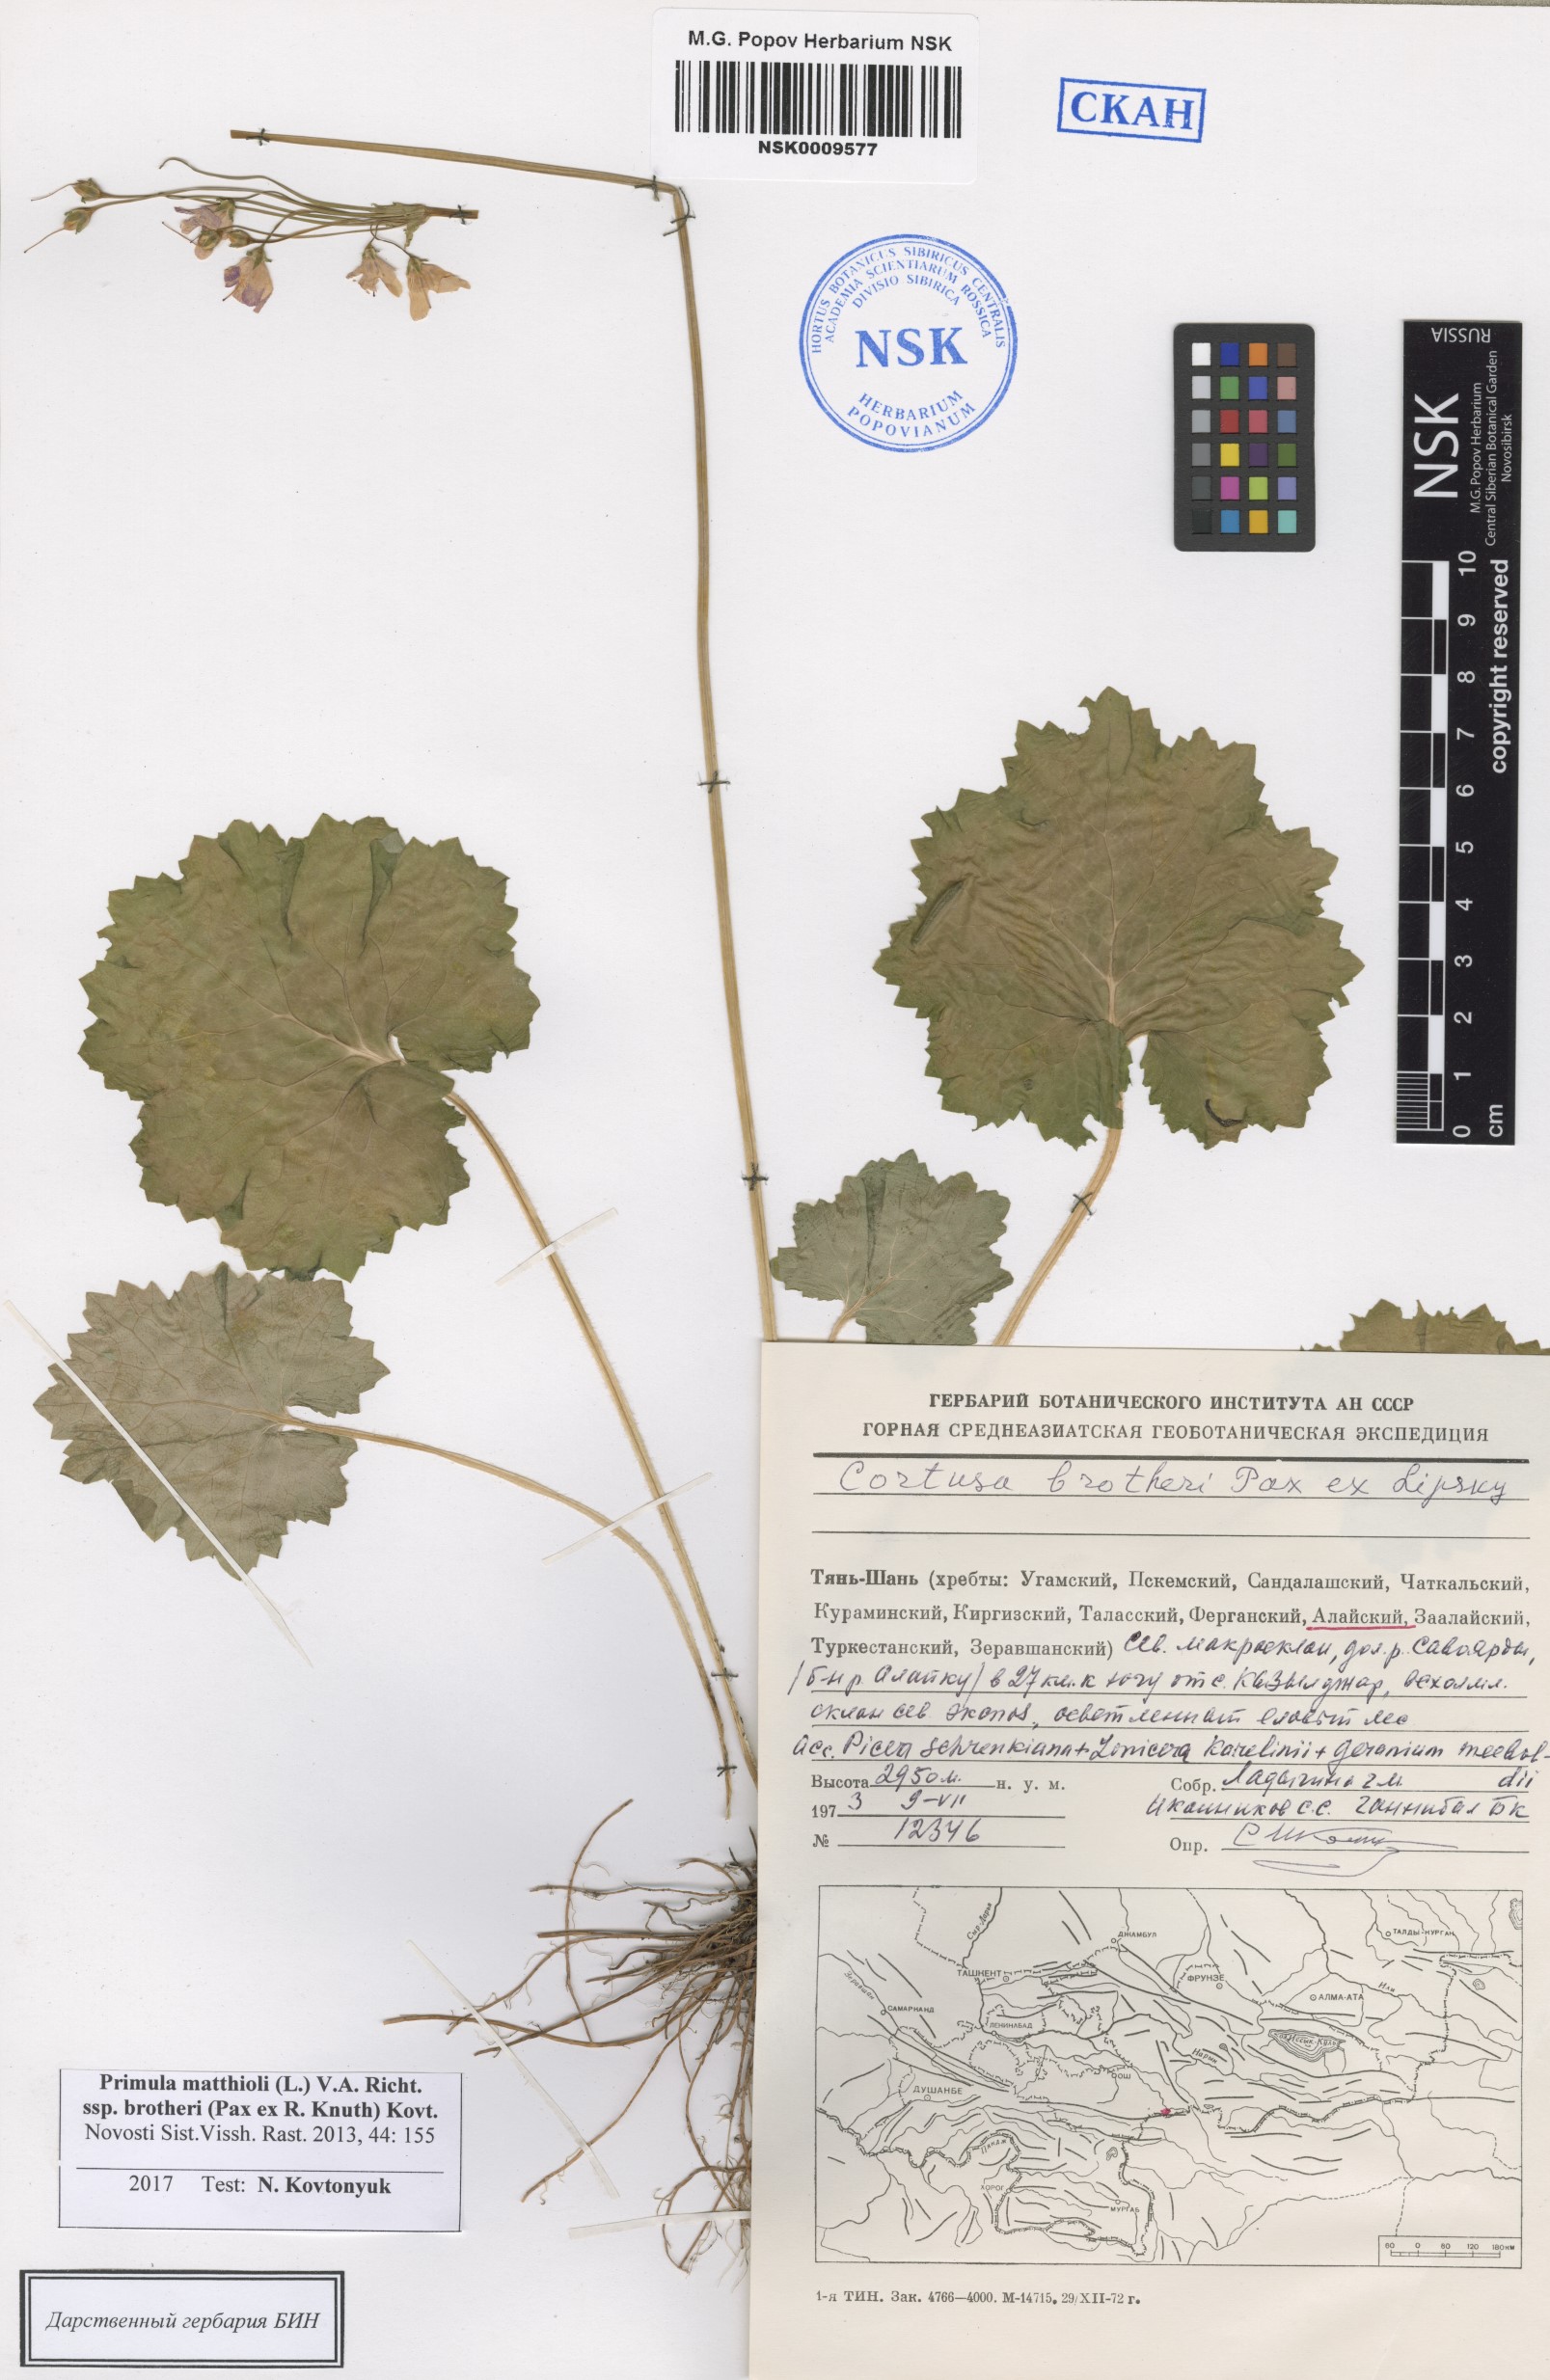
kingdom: Plantae
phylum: Tracheophyta
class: Magnoliopsida
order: Ericales
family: Primulaceae
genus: Primula
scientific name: Primula matthioli
